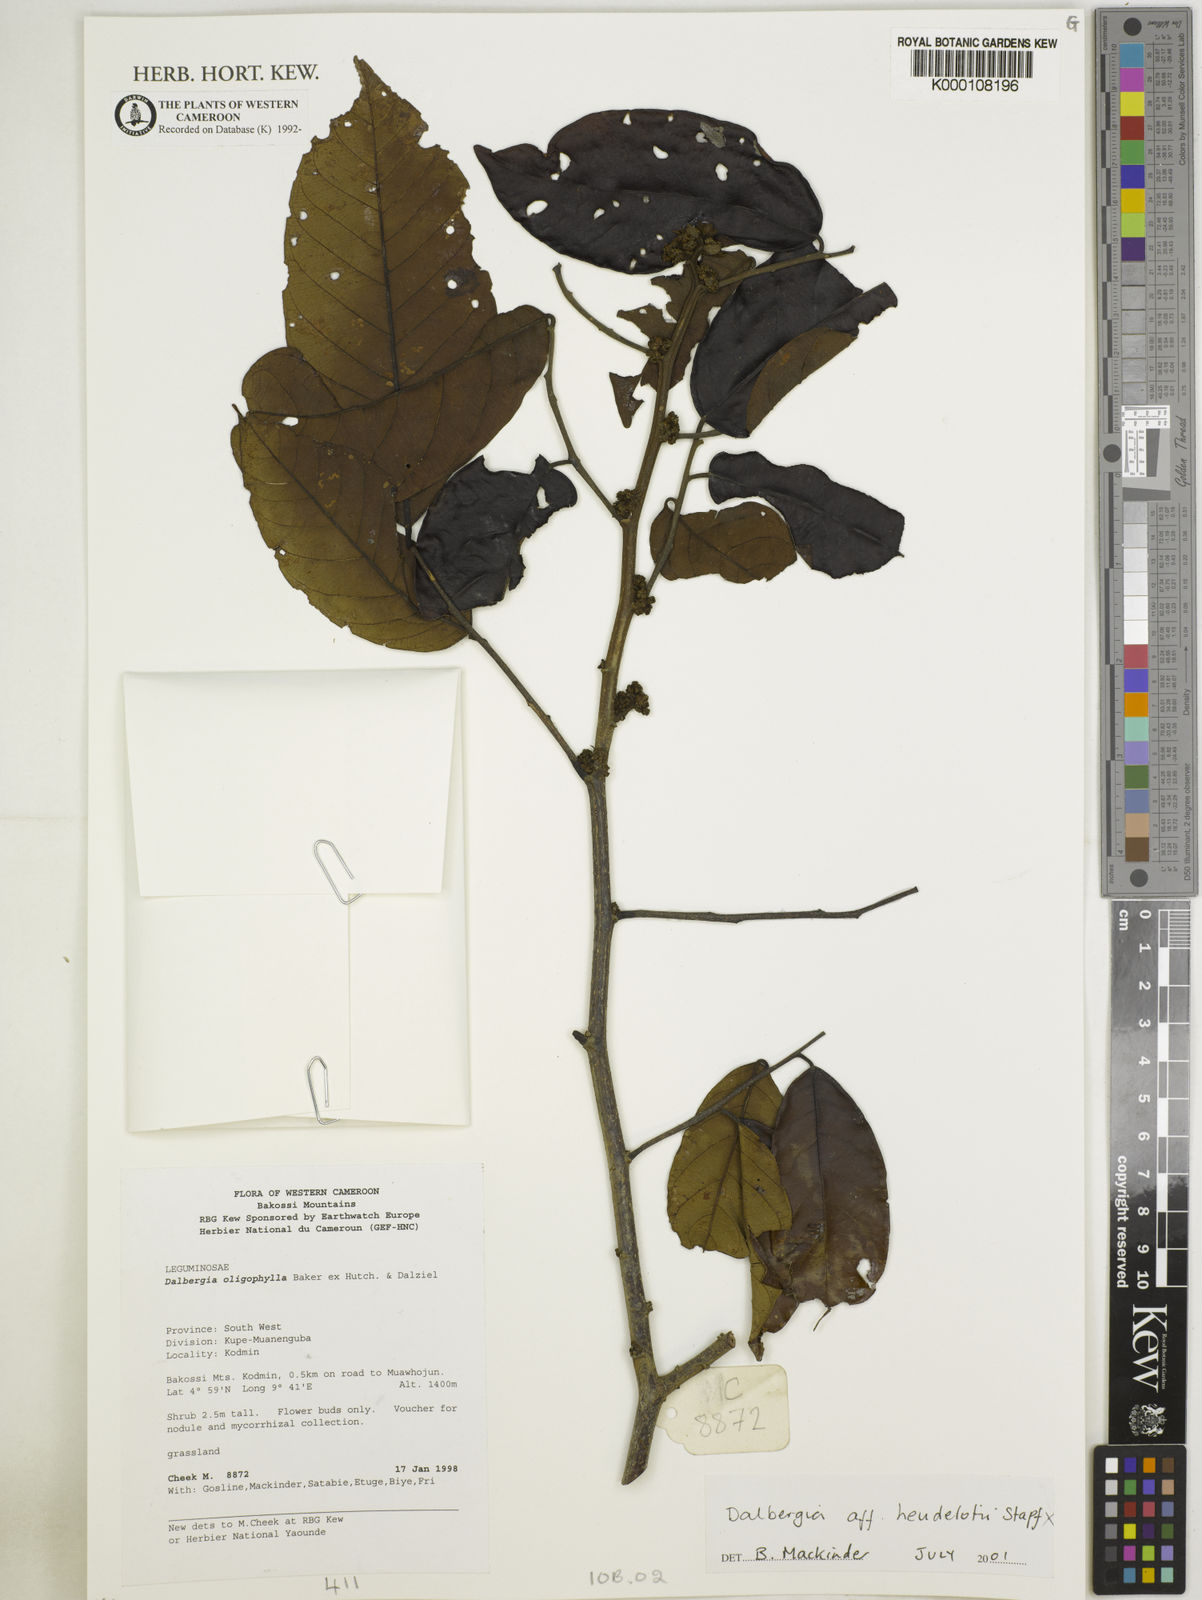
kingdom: Plantae
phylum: Tracheophyta
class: Magnoliopsida
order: Fabales
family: Fabaceae
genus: Dalbergia
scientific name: Dalbergia saxatilis
